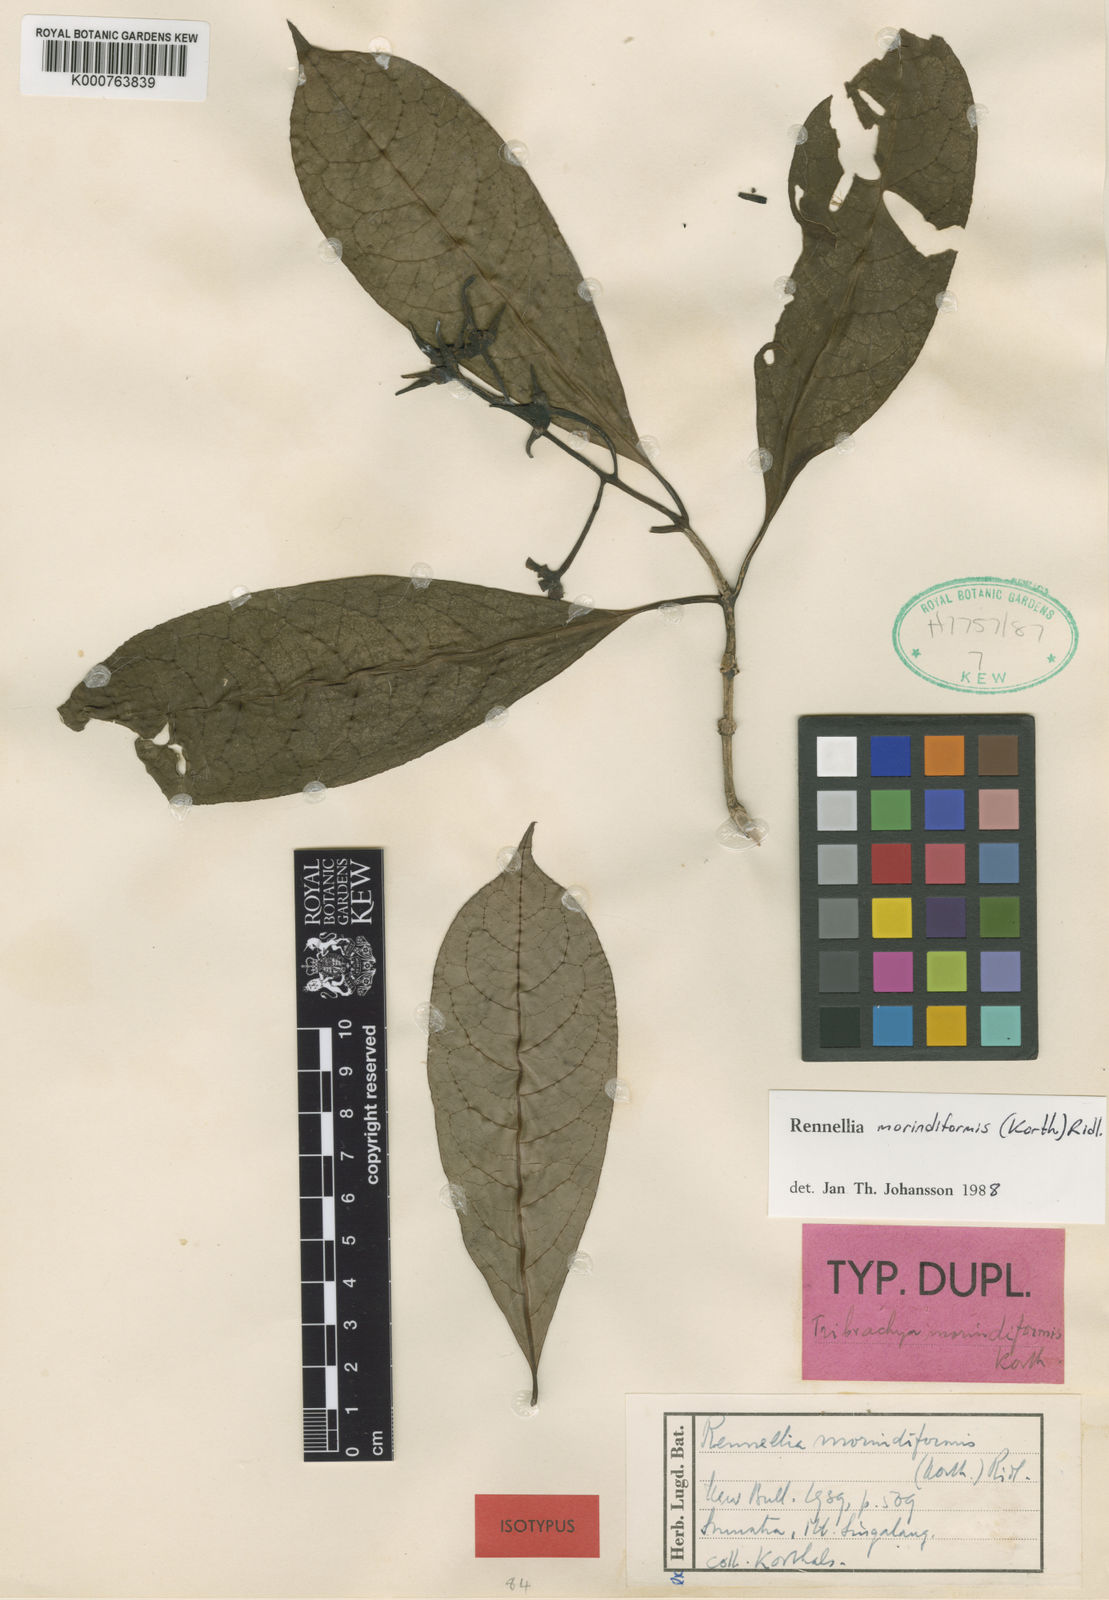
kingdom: Plantae
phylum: Tracheophyta
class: Magnoliopsida
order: Gentianales
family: Rubiaceae
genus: Rennellia
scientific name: Rennellia morindiformis
